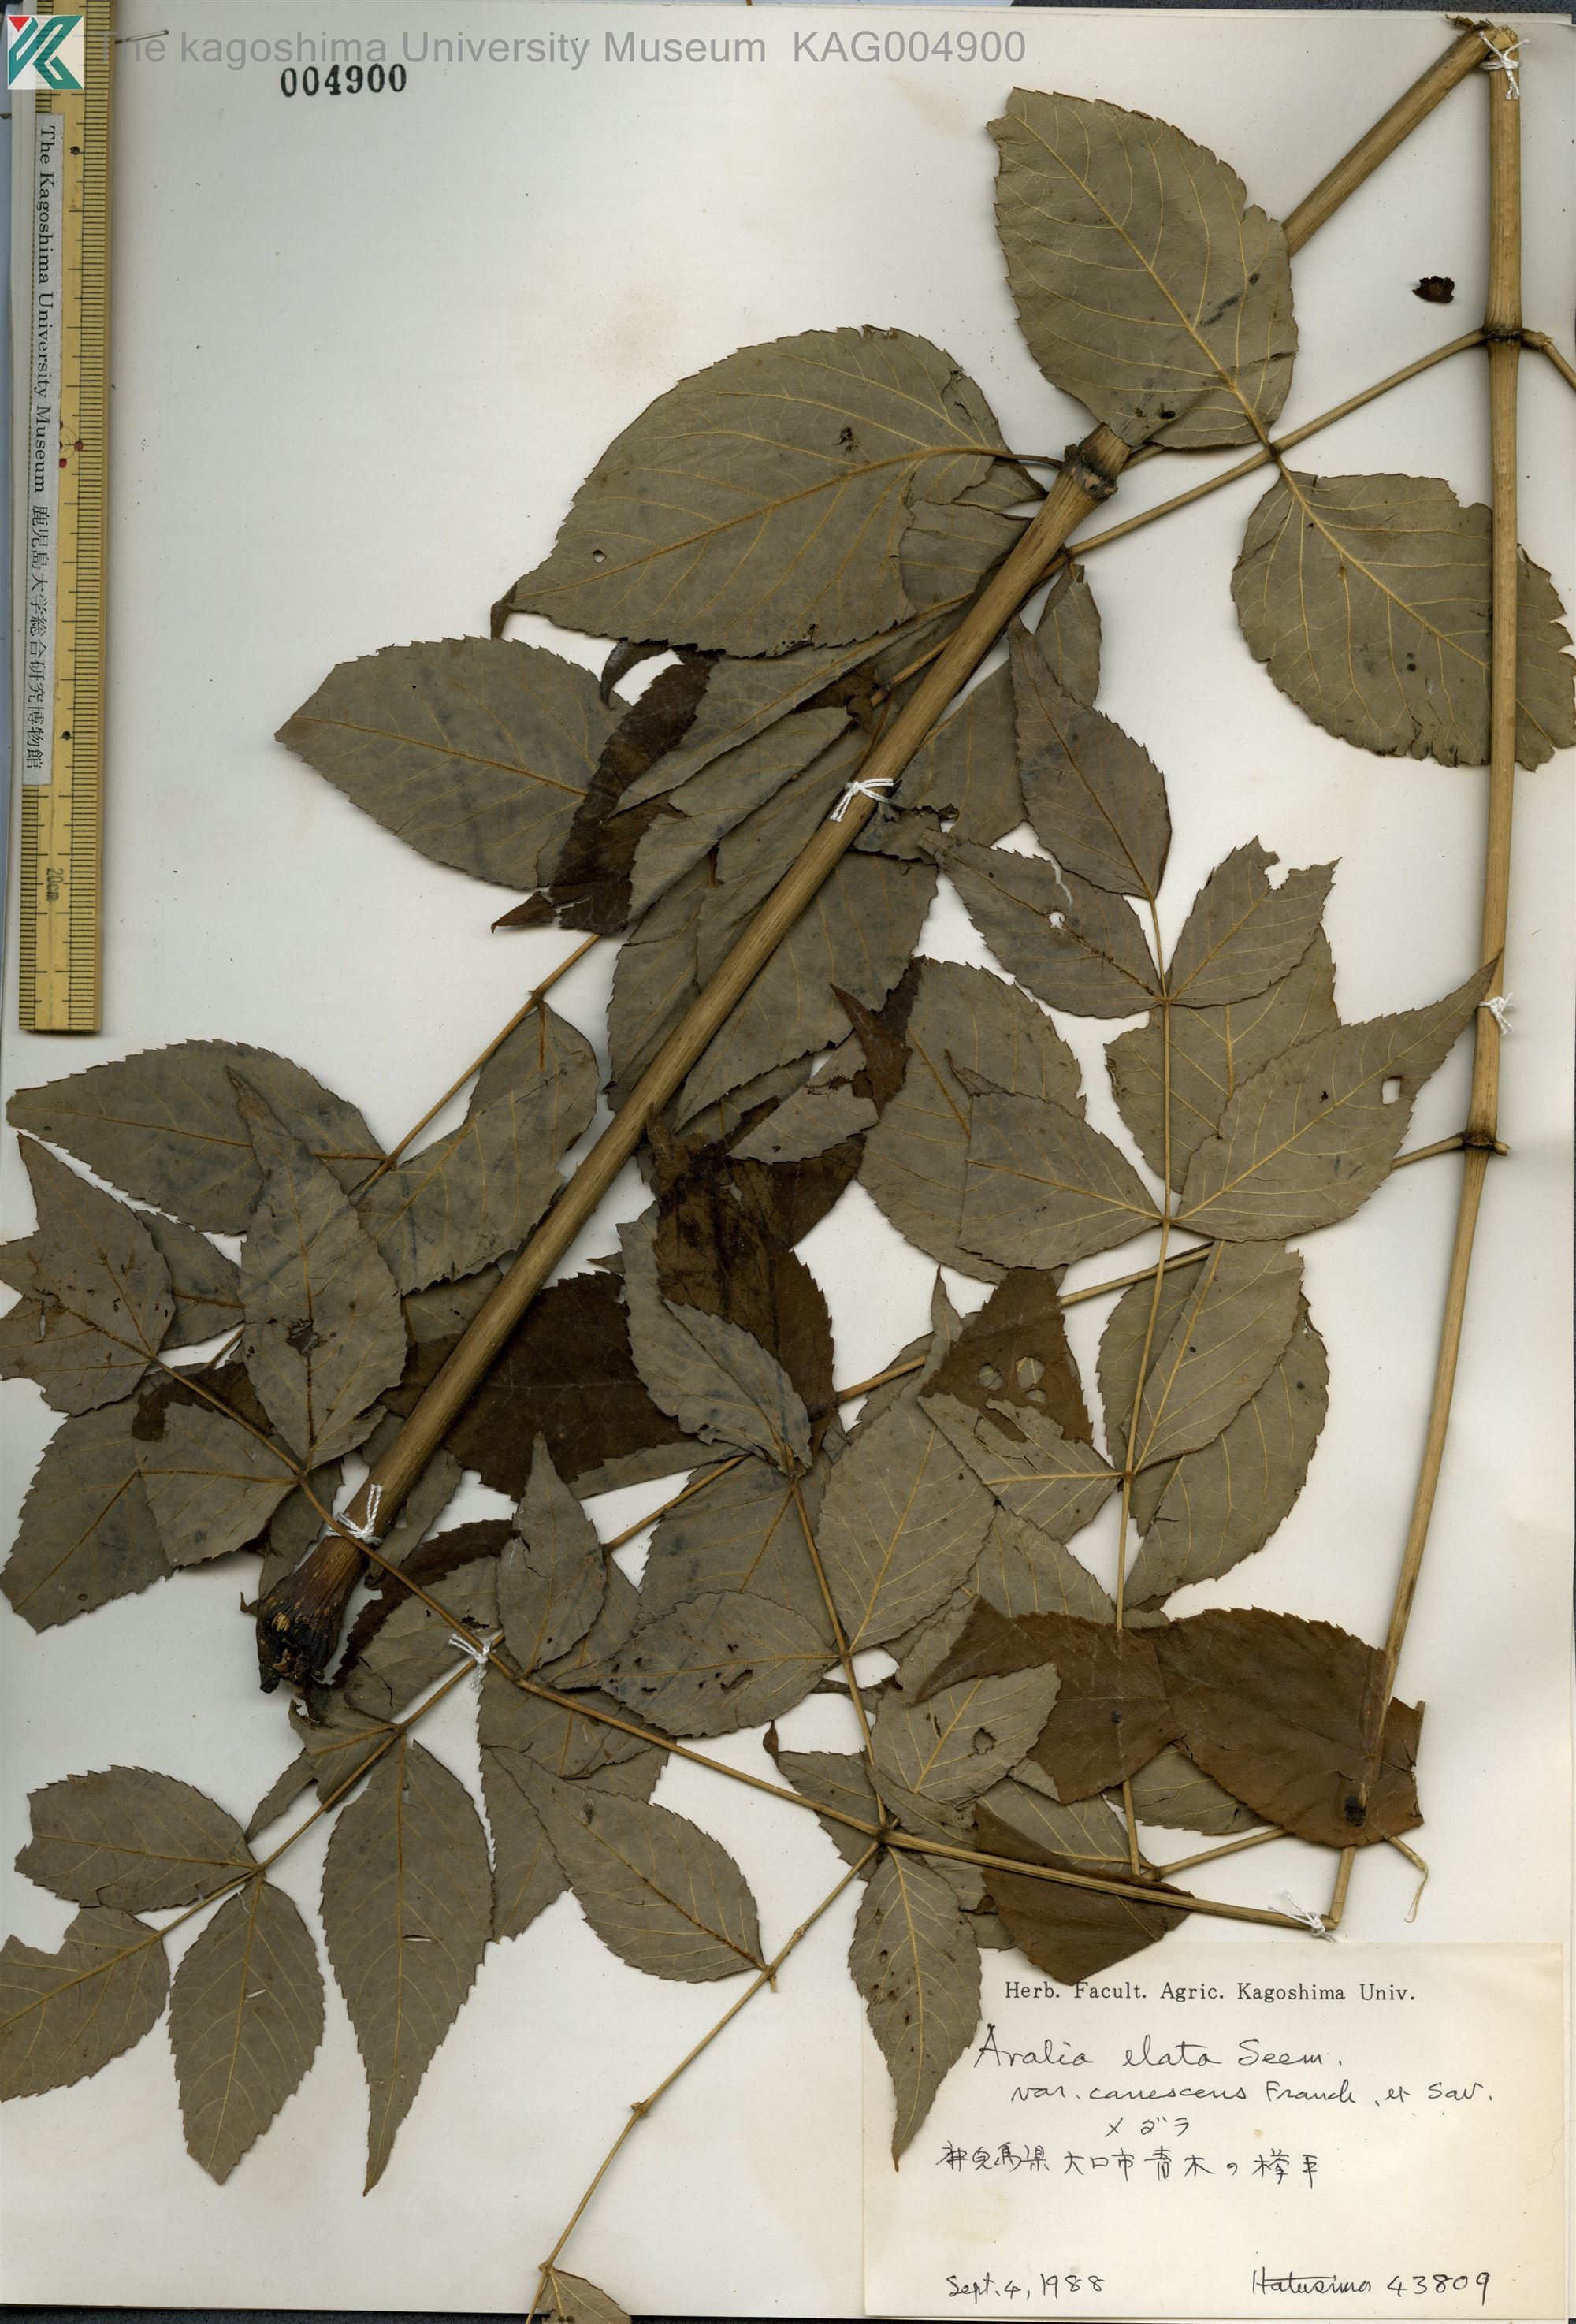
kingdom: Plantae
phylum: Tracheophyta
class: Magnoliopsida
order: Apiales
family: Araliaceae
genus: Aralia
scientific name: Aralia elata
